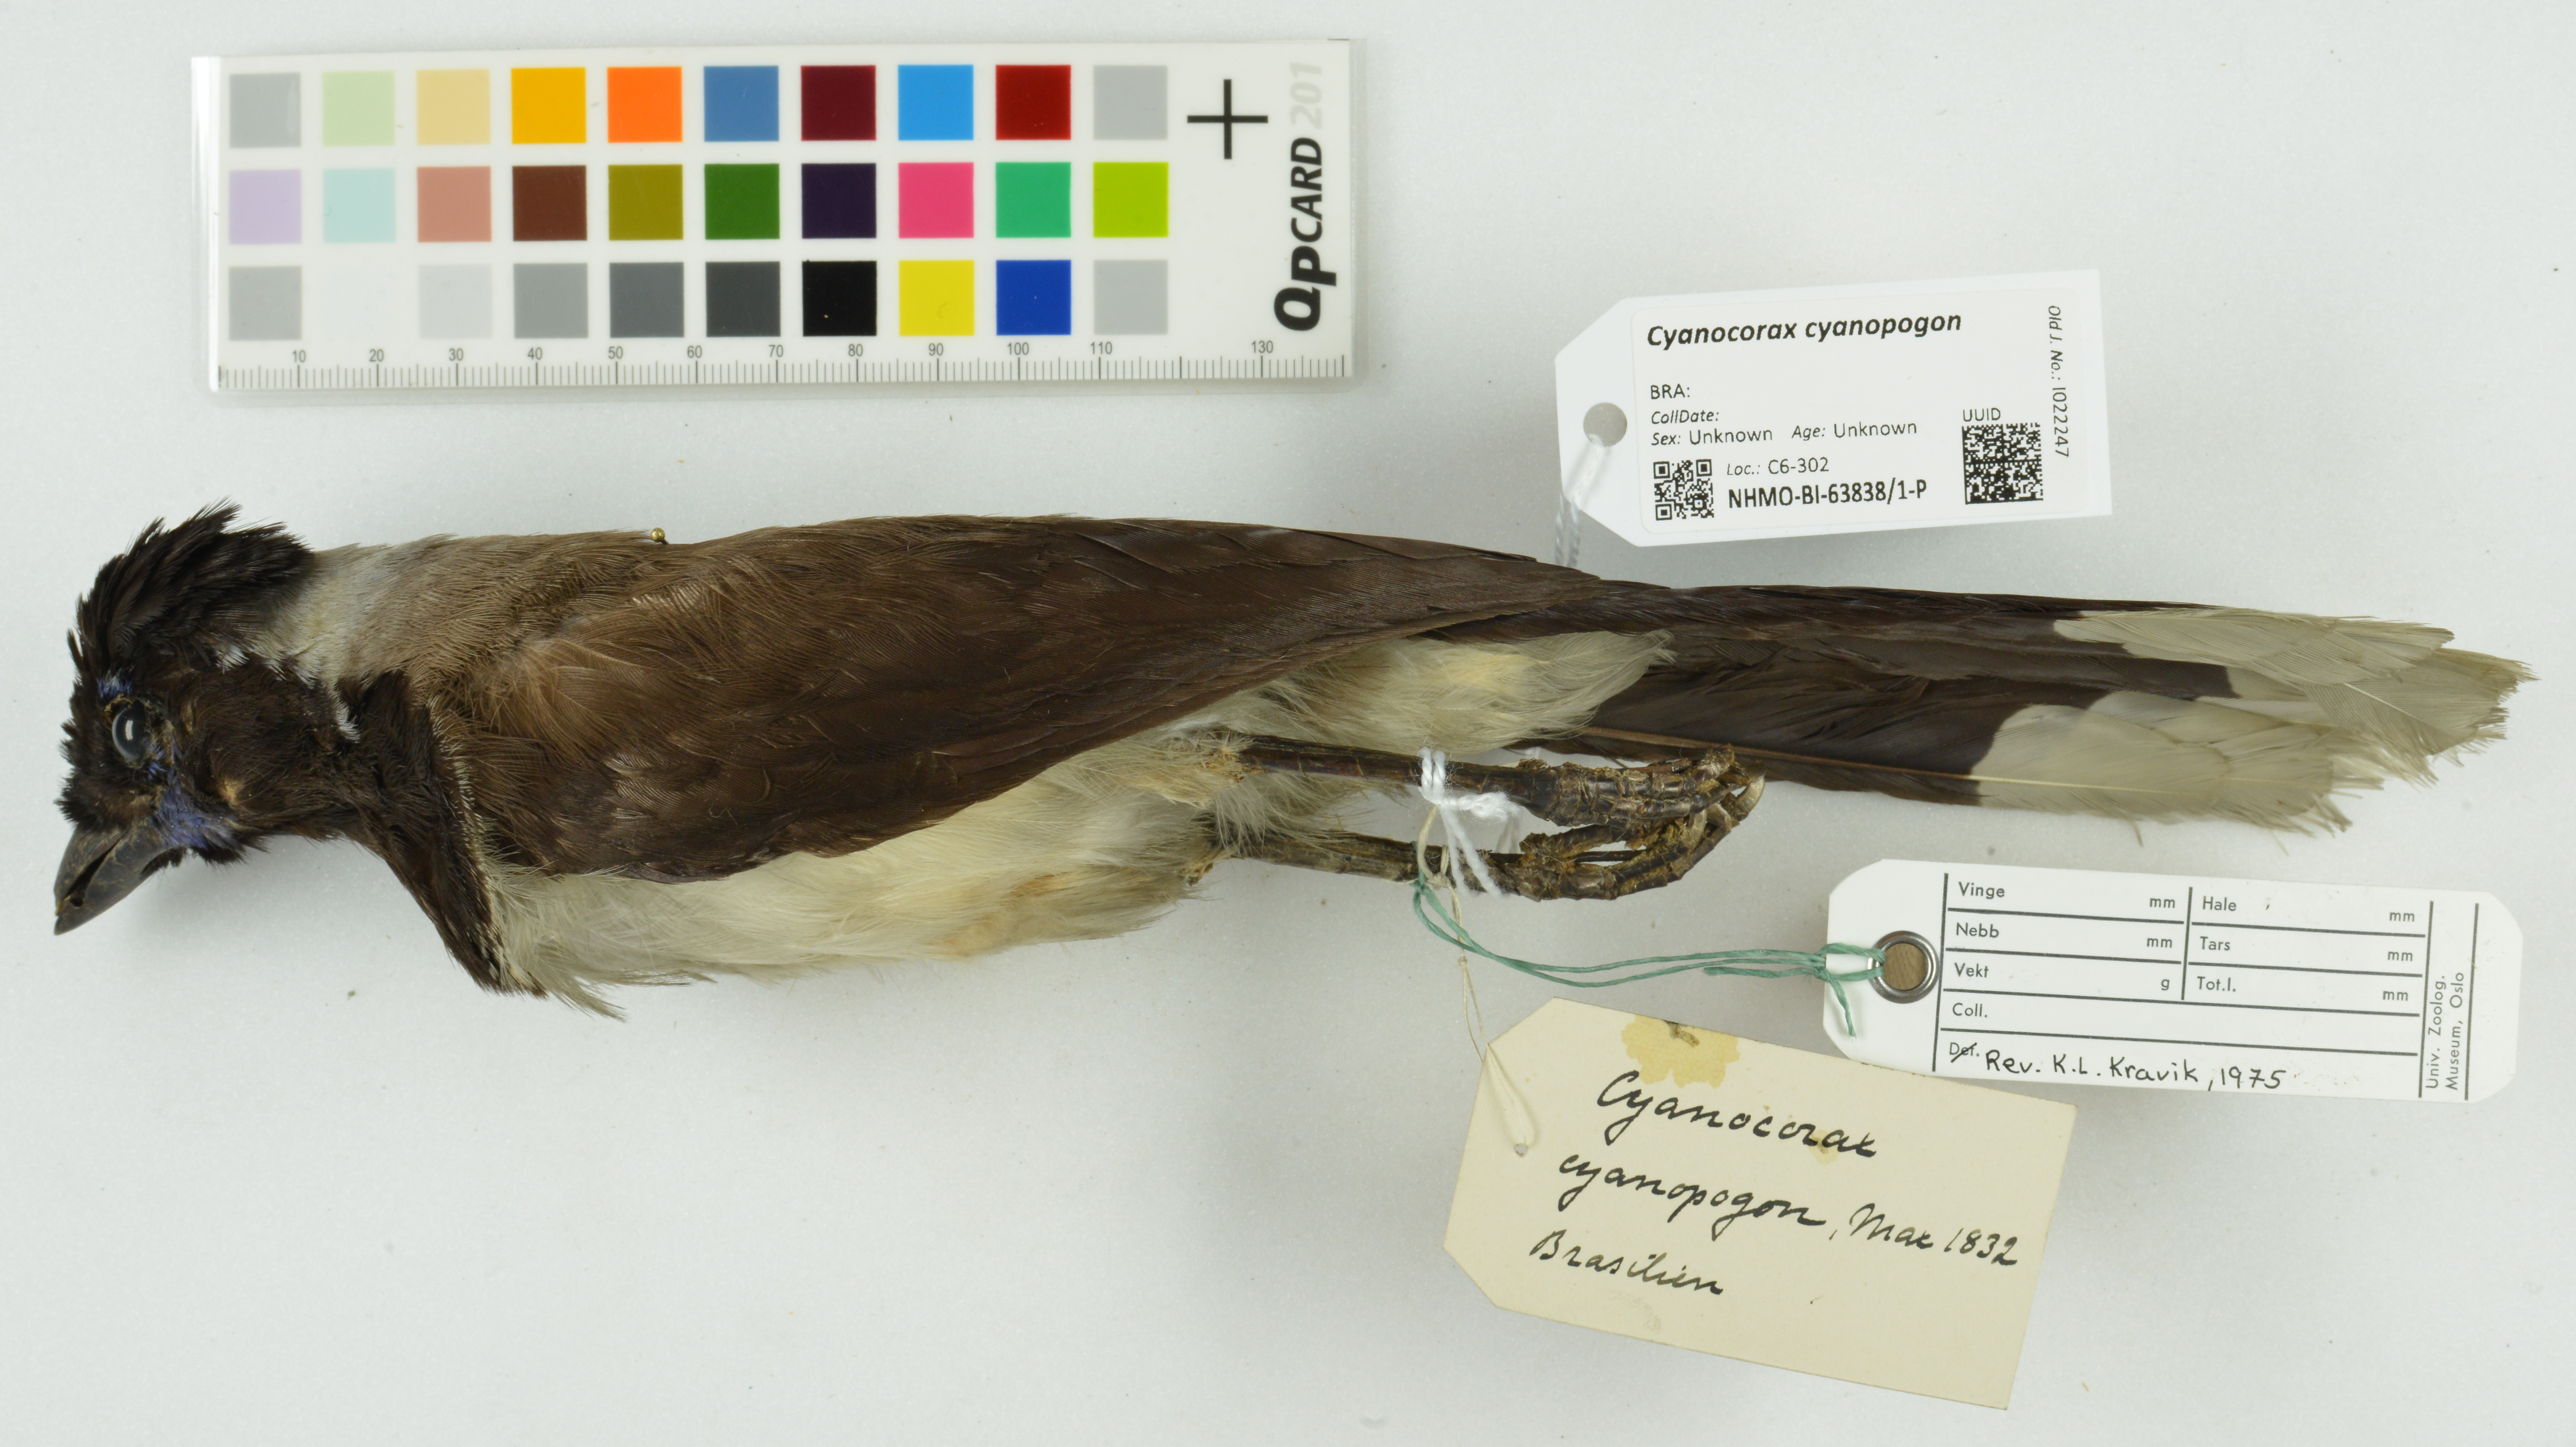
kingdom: Animalia
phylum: Chordata
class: Aves
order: Passeriformes
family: Corvidae
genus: Cyanocorax
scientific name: Cyanocorax cyanopogon
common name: White-naped jay
